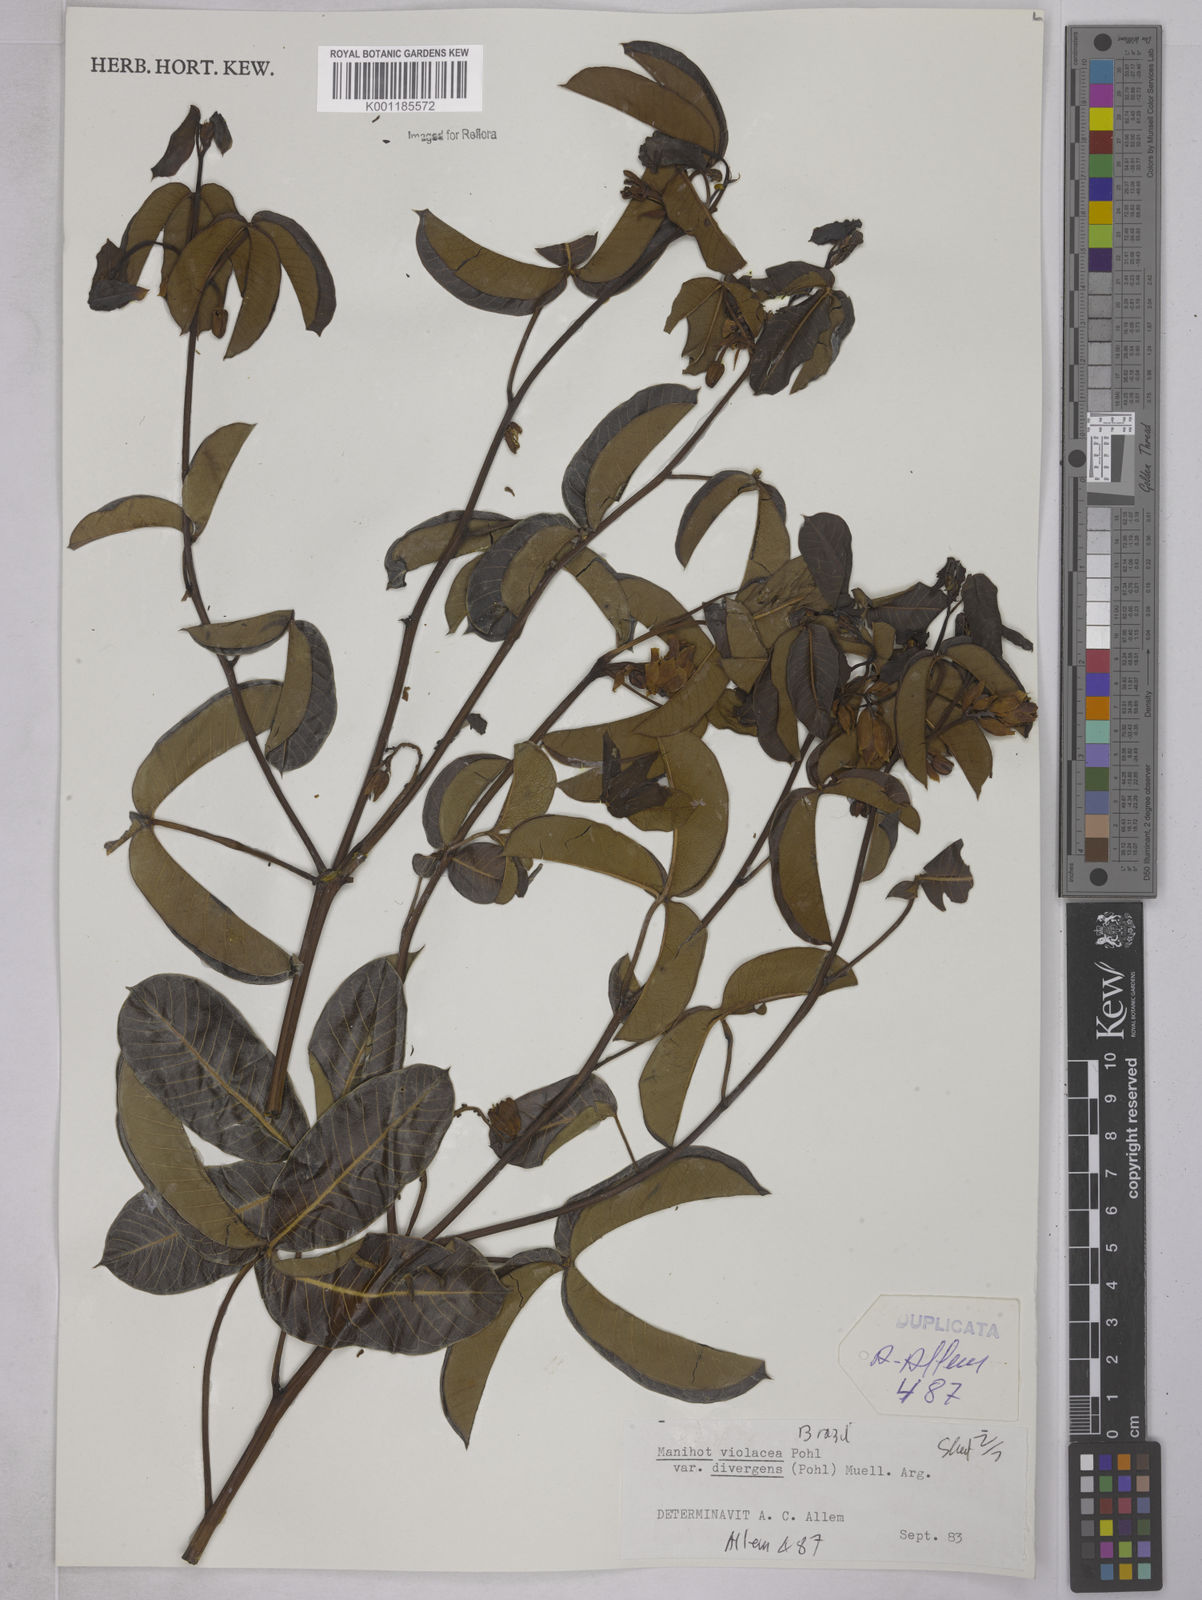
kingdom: Plantae
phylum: Tracheophyta
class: Magnoliopsida
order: Malpighiales
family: Euphorbiaceae
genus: Manihot
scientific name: Manihot divergens
